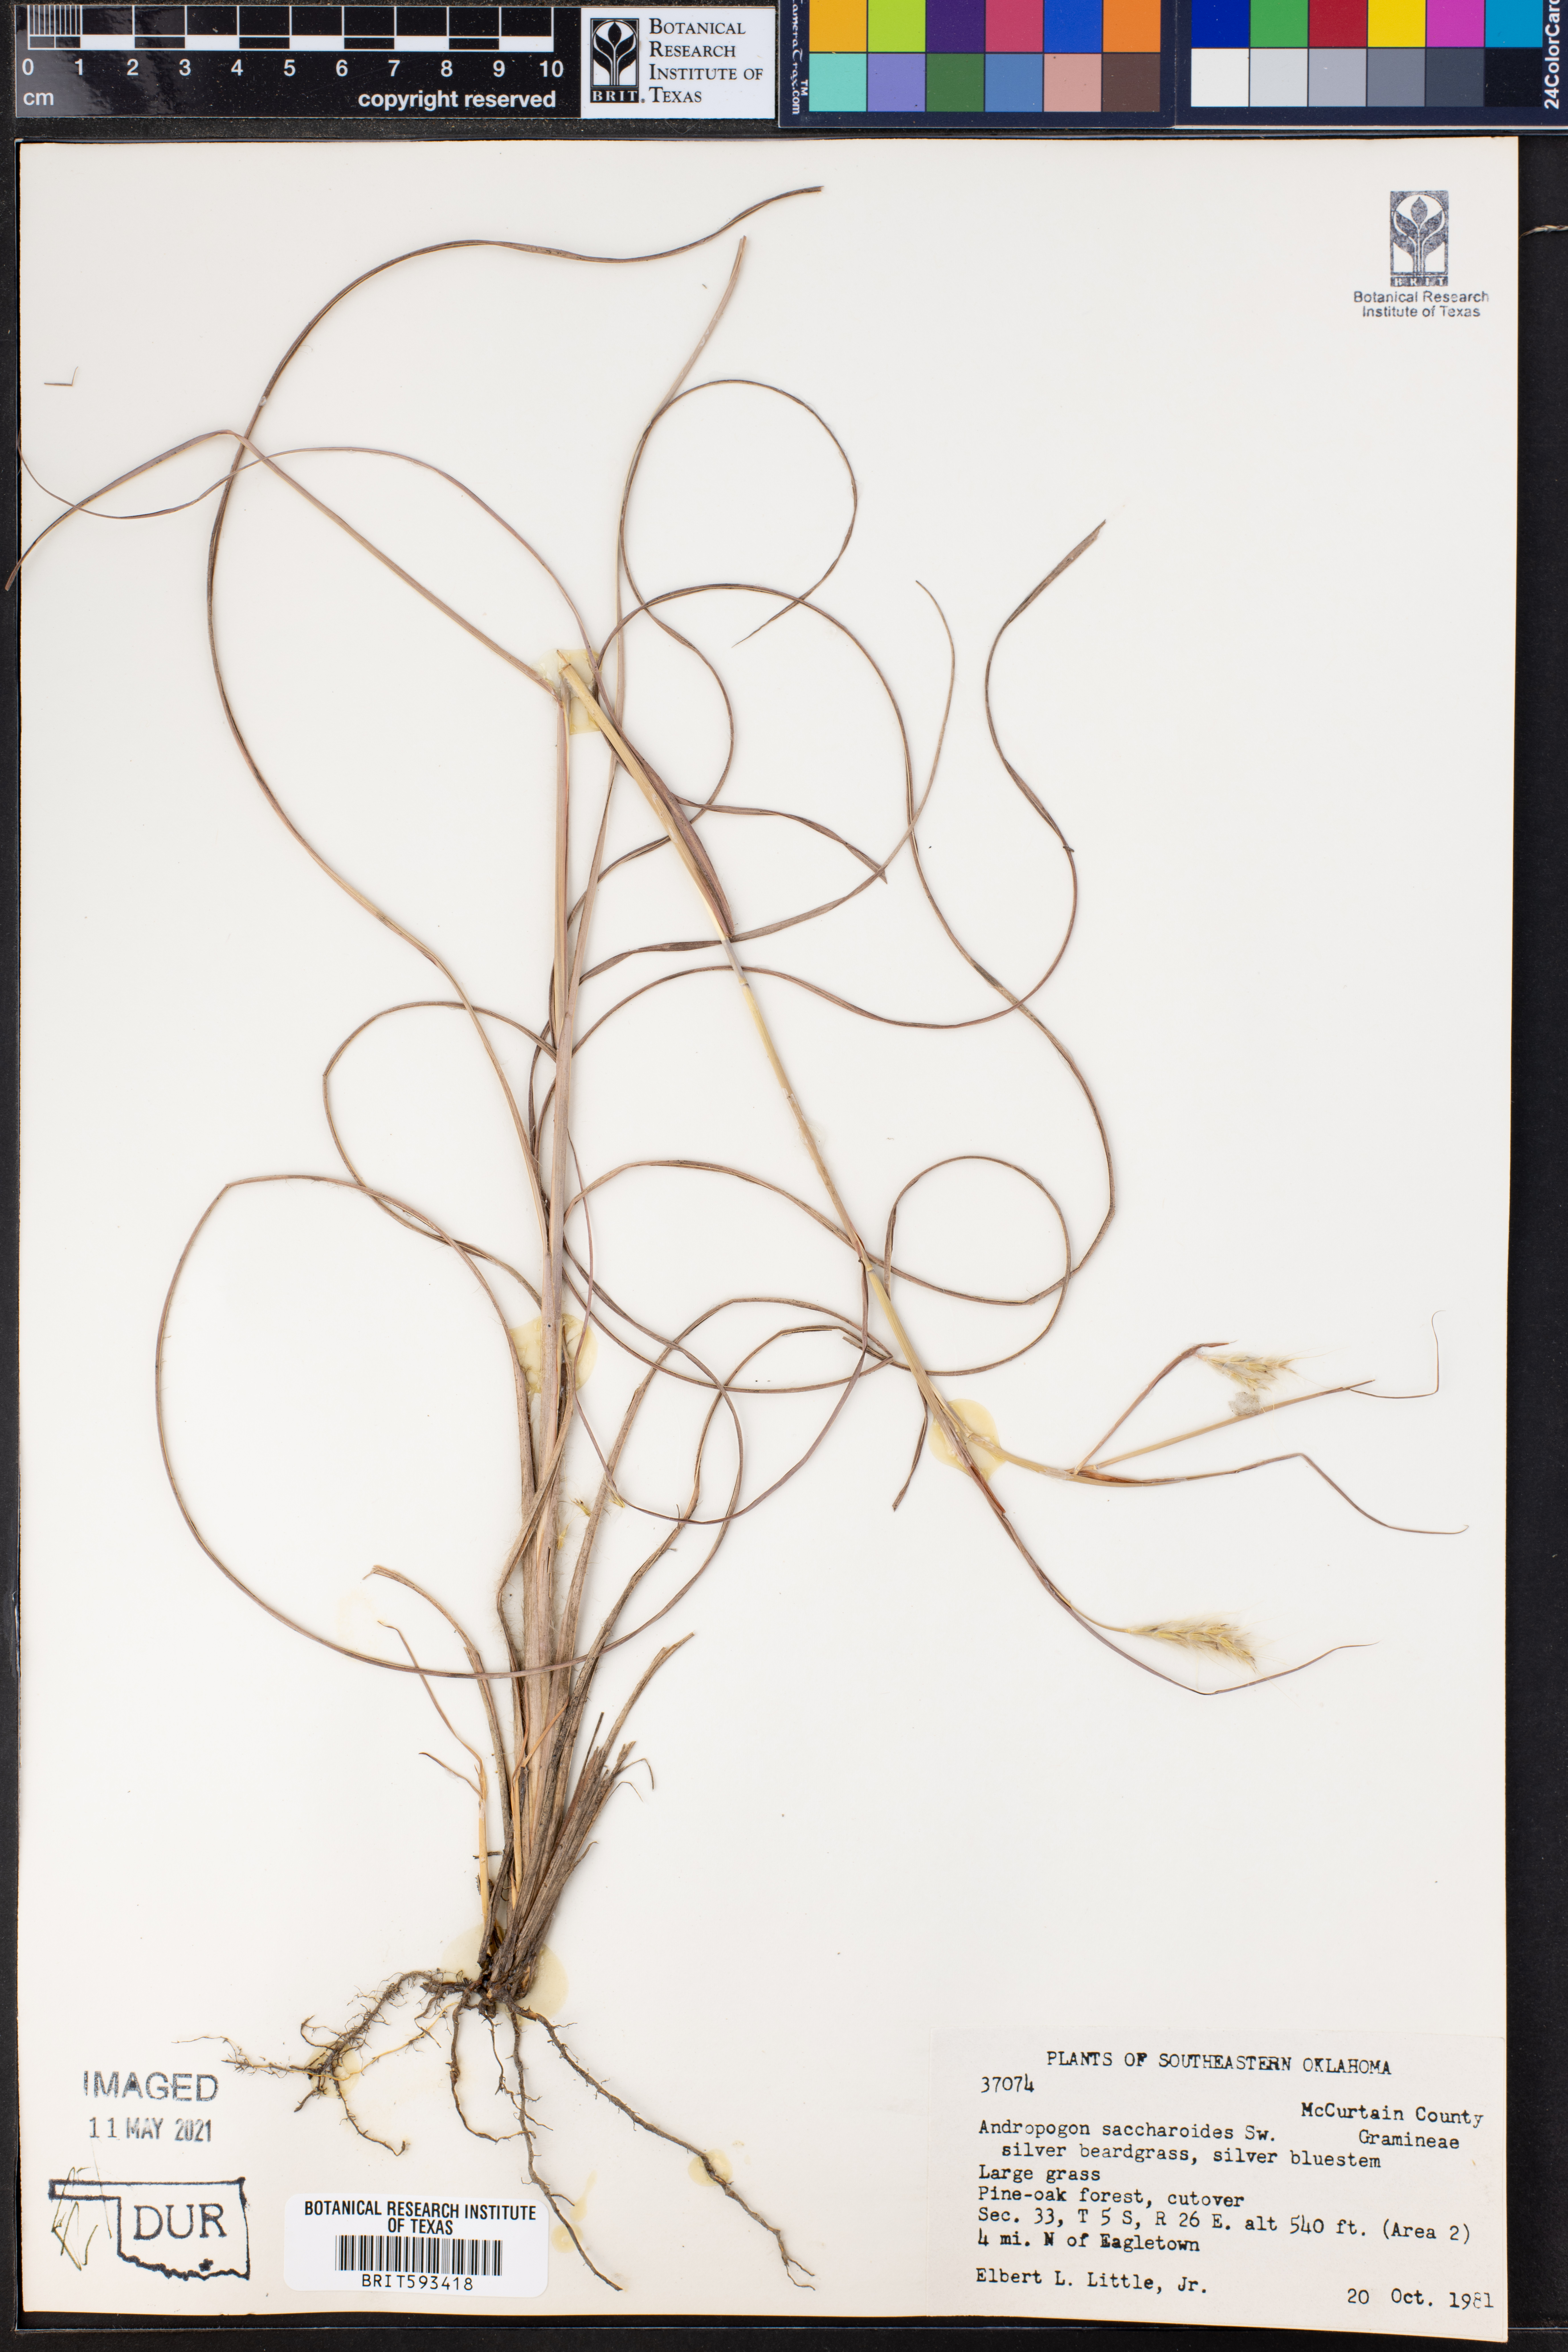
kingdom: Plantae
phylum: Tracheophyta
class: Liliopsida
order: Poales
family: Poaceae
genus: Bothriochloa
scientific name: Bothriochloa saccharoides
